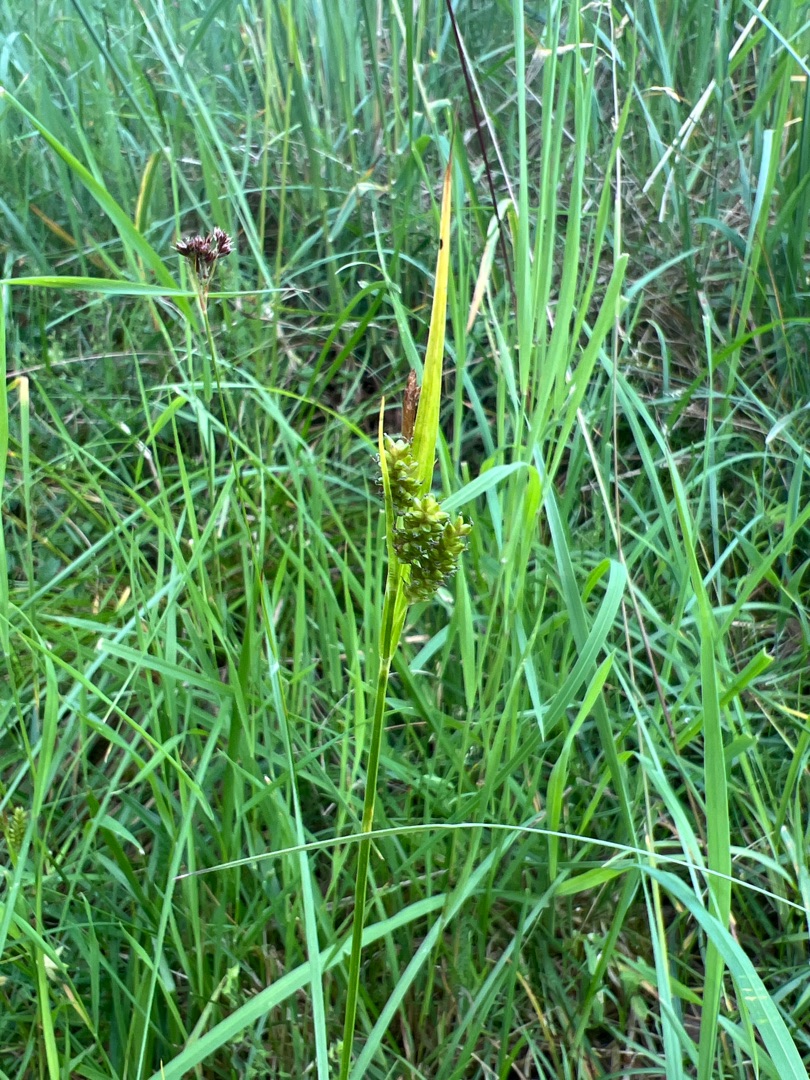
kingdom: Plantae
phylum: Tracheophyta
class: Liliopsida
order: Poales
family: Cyperaceae
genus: Carex
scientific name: Carex pallescens
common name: Bleg star
